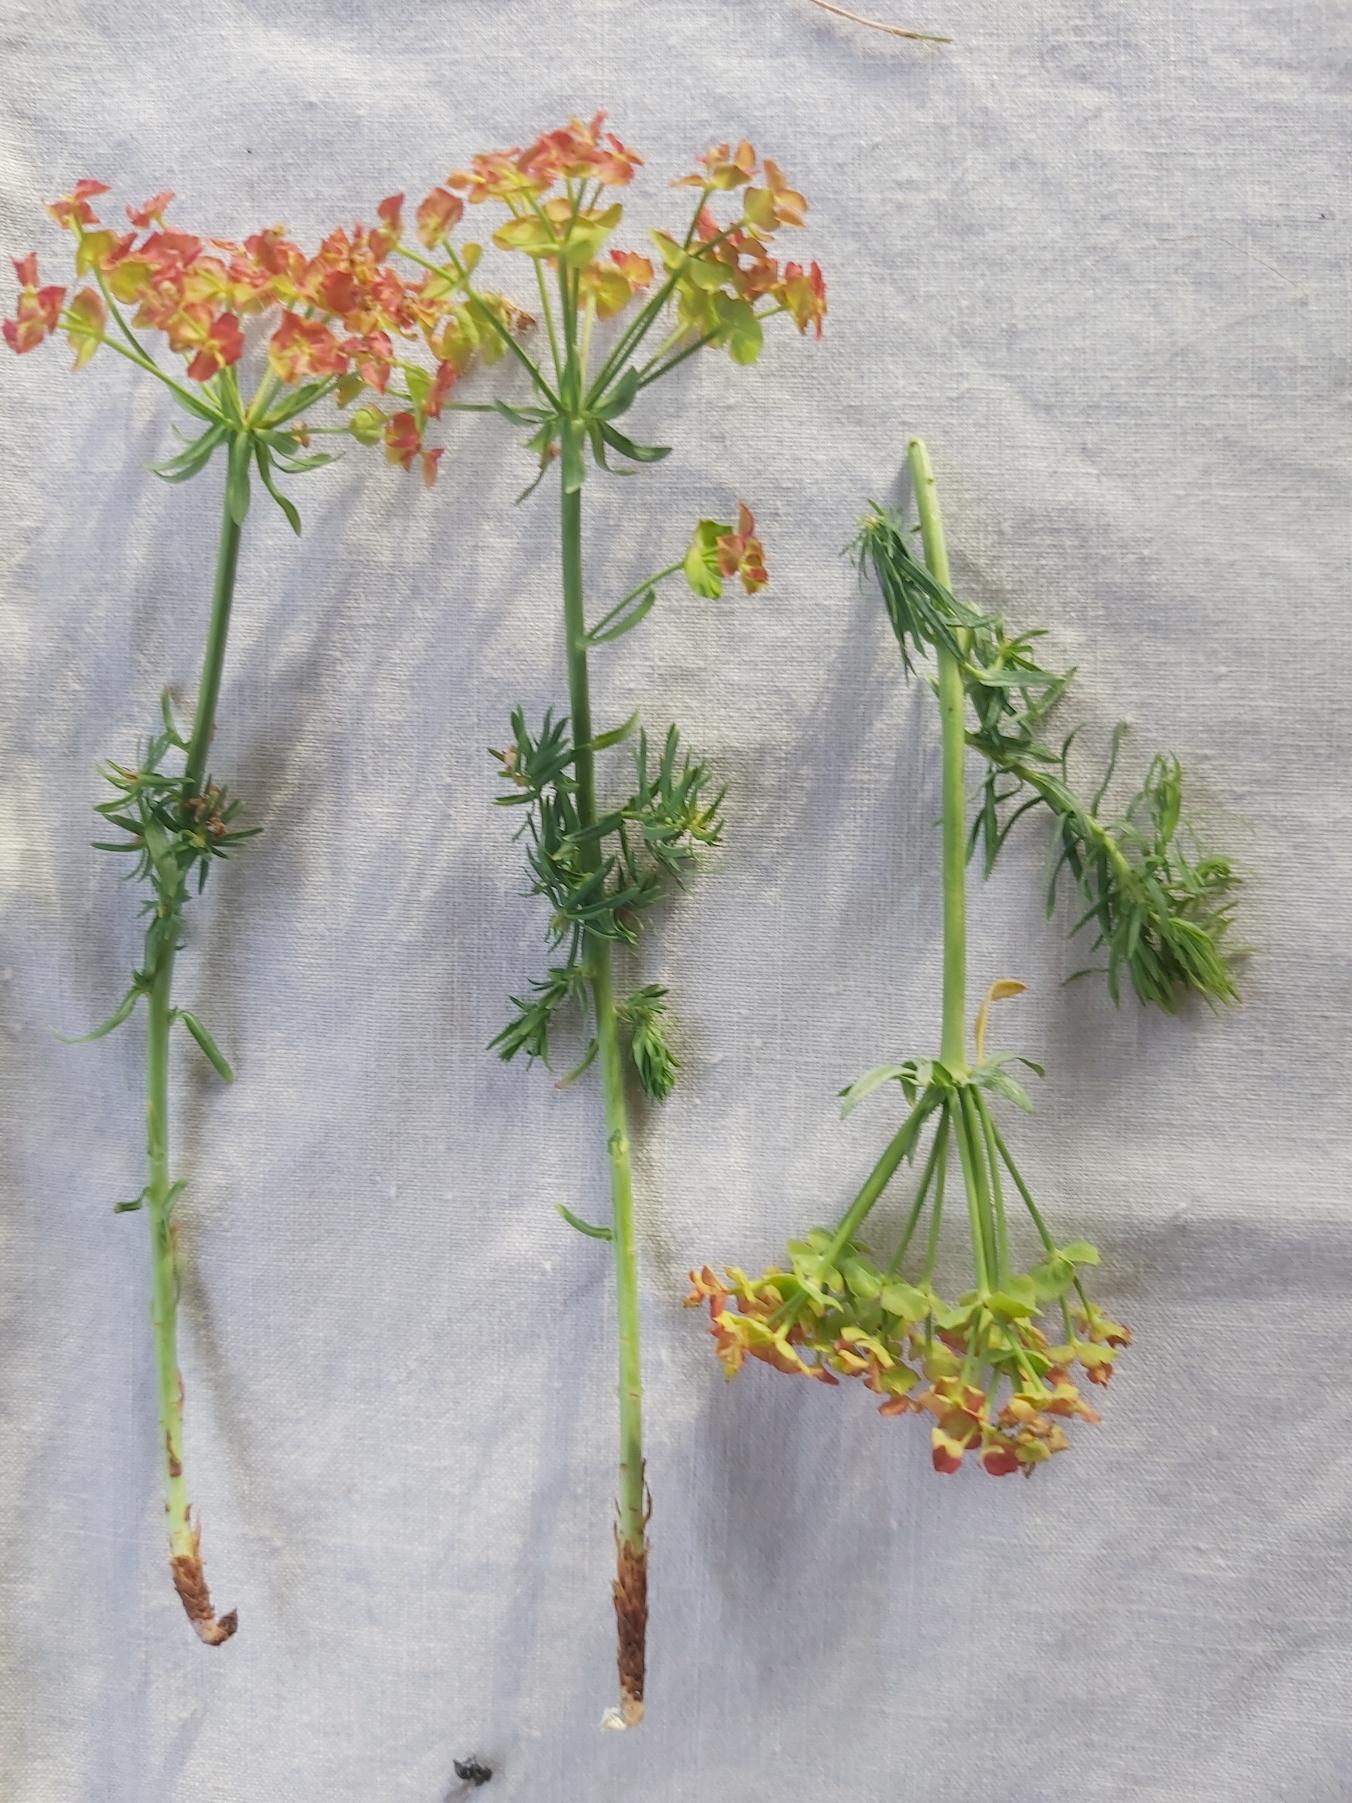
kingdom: Plantae
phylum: Tracheophyta
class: Magnoliopsida
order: Malpighiales
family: Euphorbiaceae
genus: Euphorbia
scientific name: Euphorbia cyparissias
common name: Cypres-vortemælk
